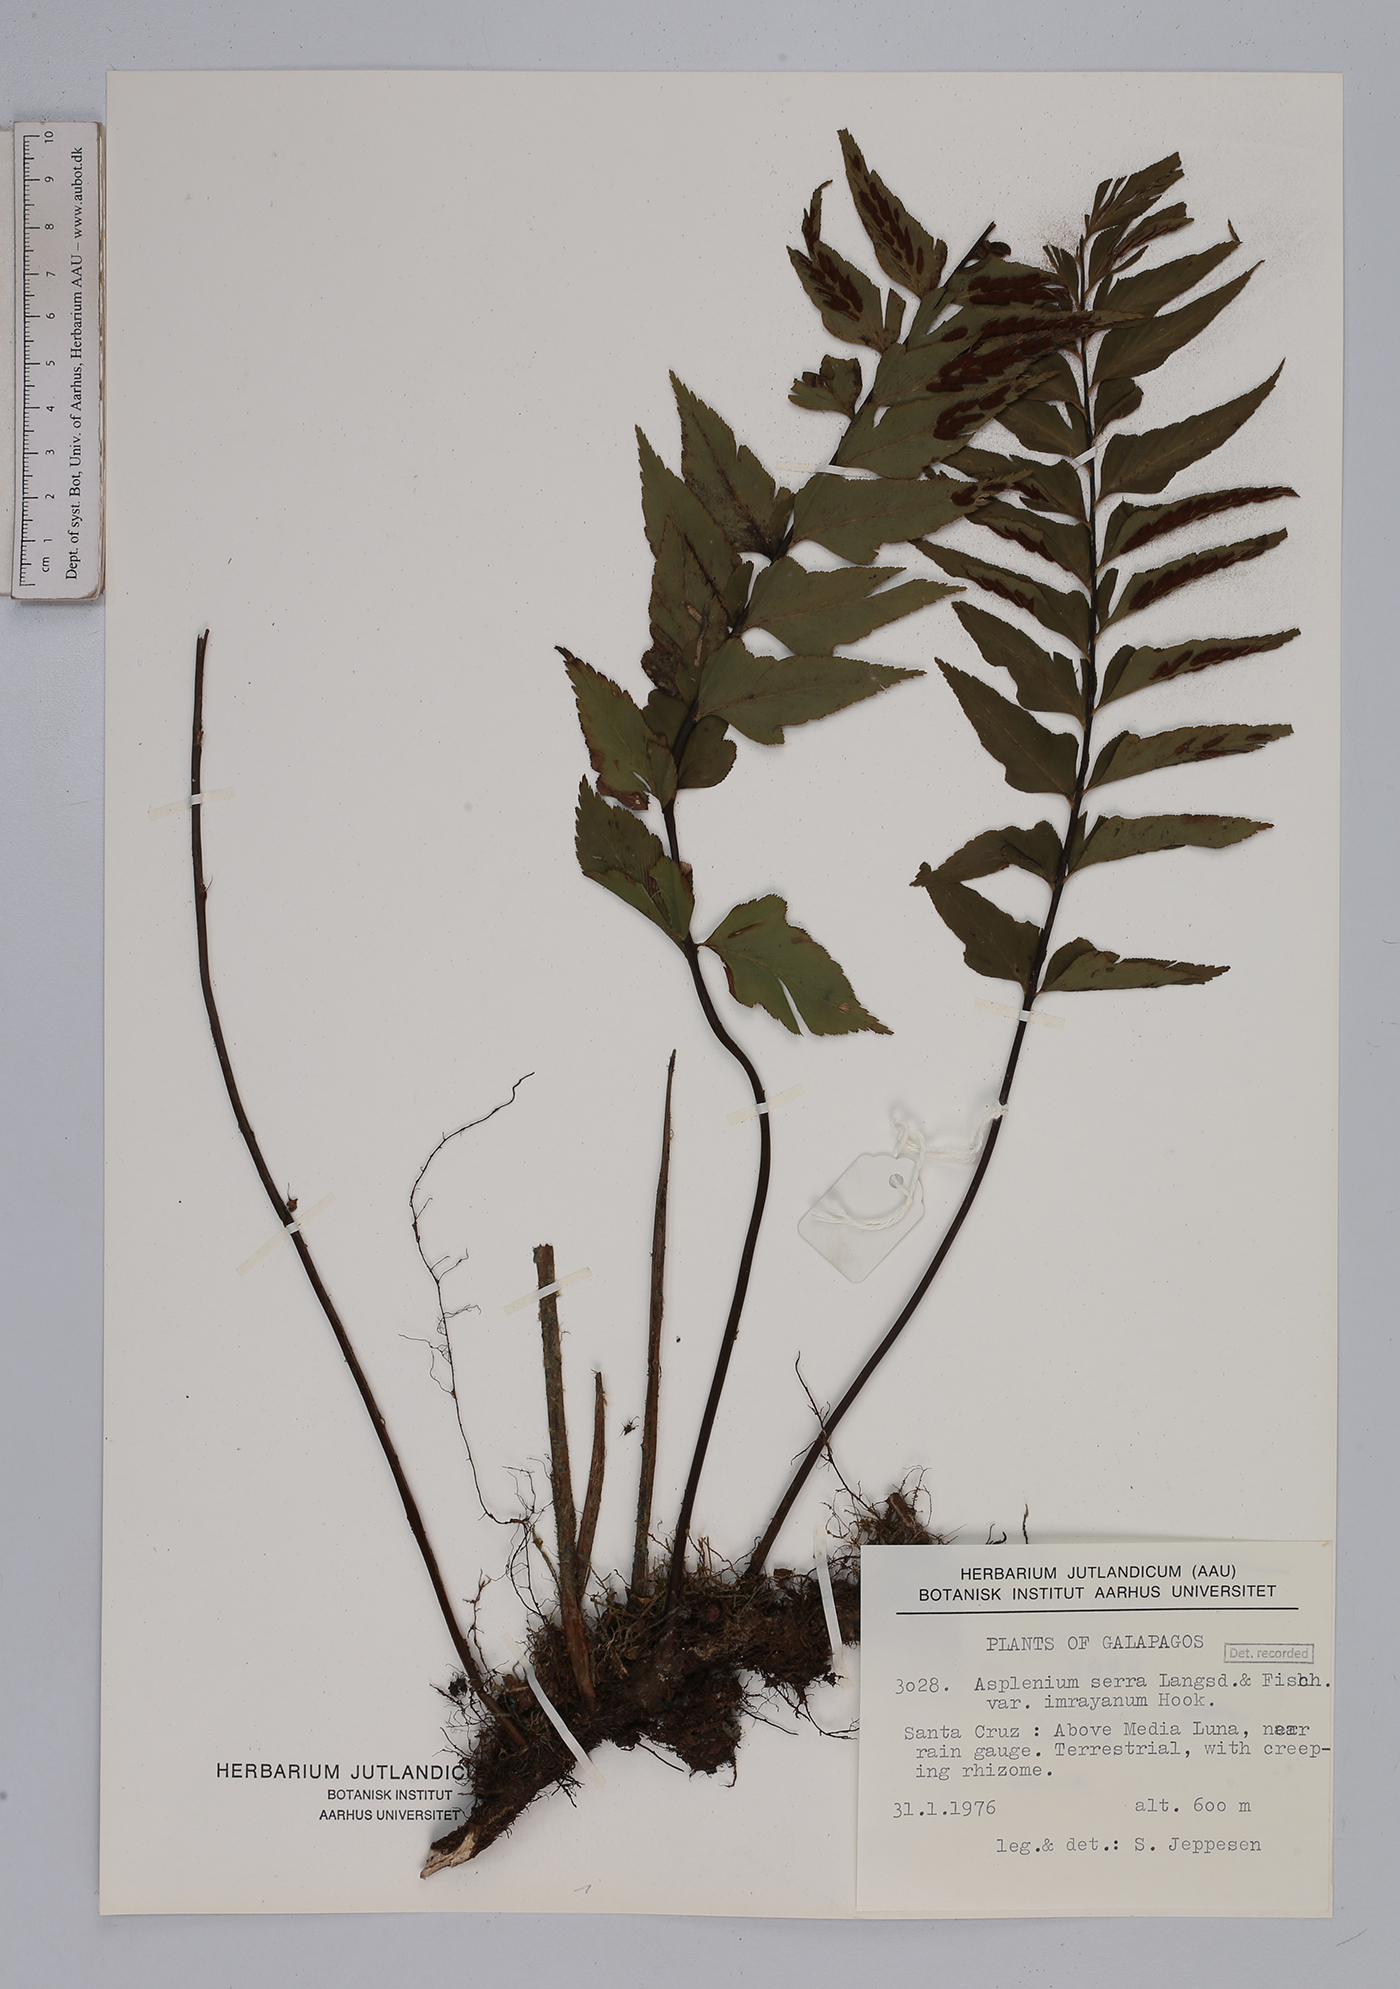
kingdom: Plantae
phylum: Tracheophyta
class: Polypodiopsida
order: Polypodiales
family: Aspleniaceae
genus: Asplenium
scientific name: Asplenium serra
